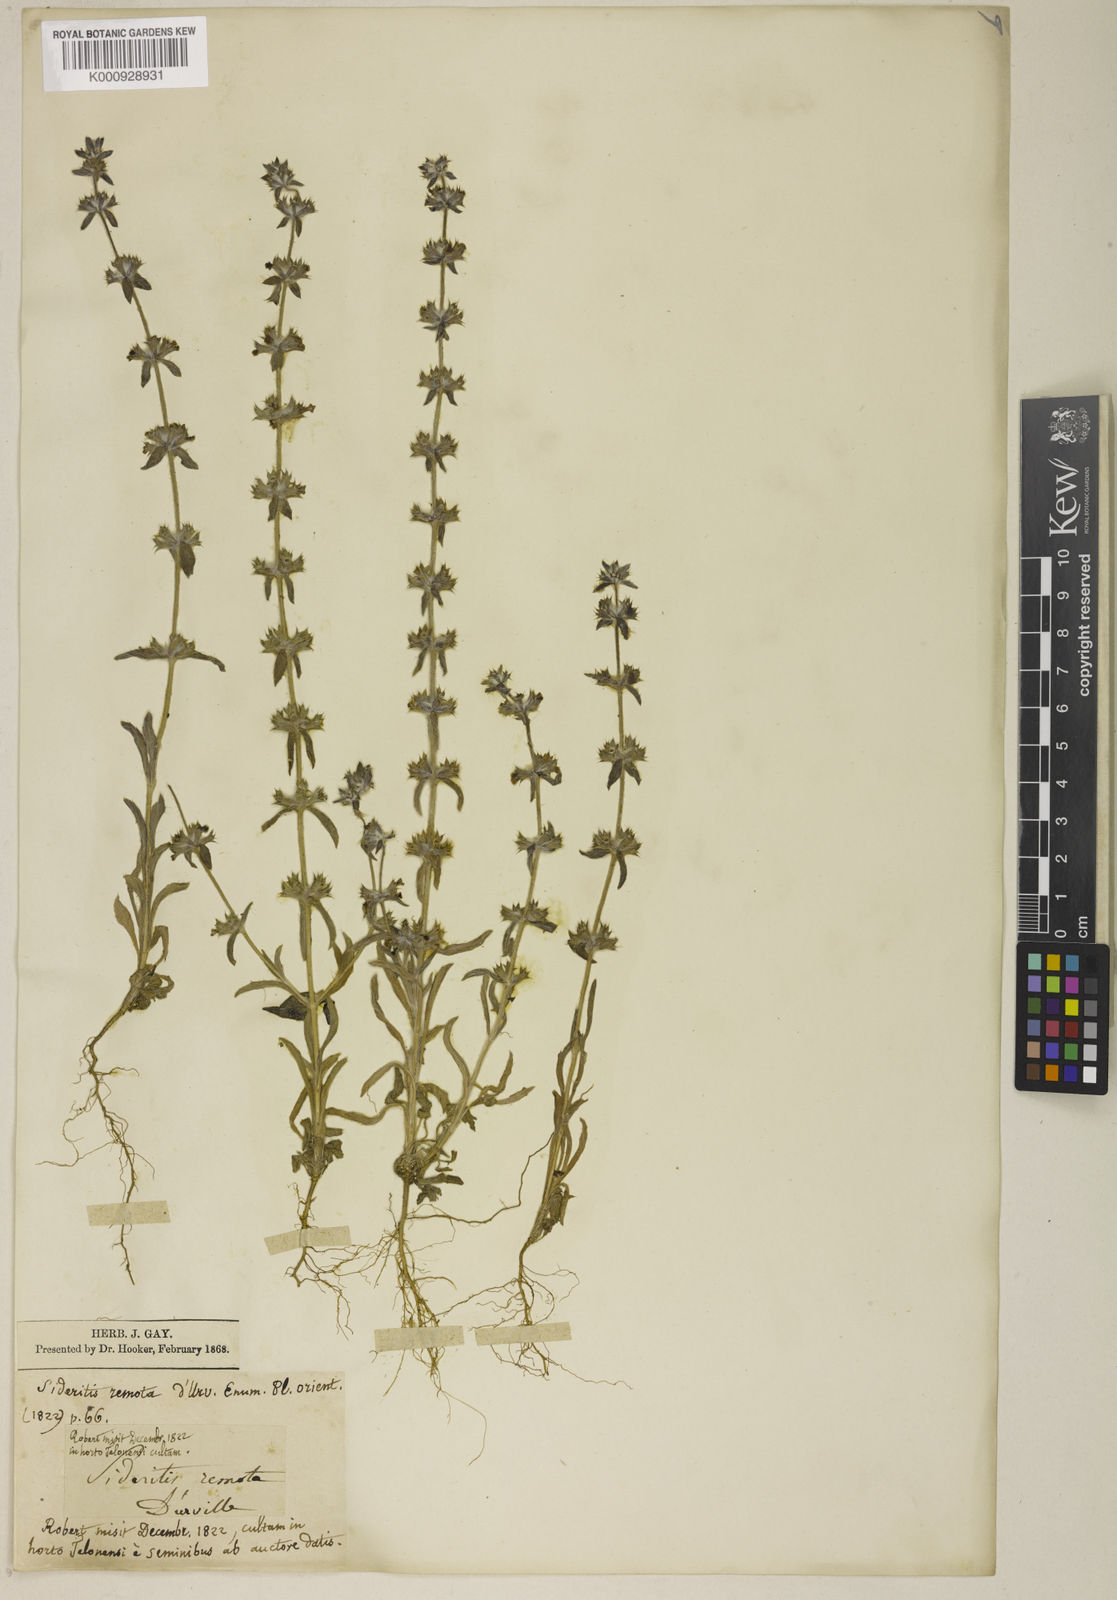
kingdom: Plantae
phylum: Tracheophyta
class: Magnoliopsida
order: Lamiales
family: Lamiaceae
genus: Sideritis
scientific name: Sideritis montana
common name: Mountain ironwort
